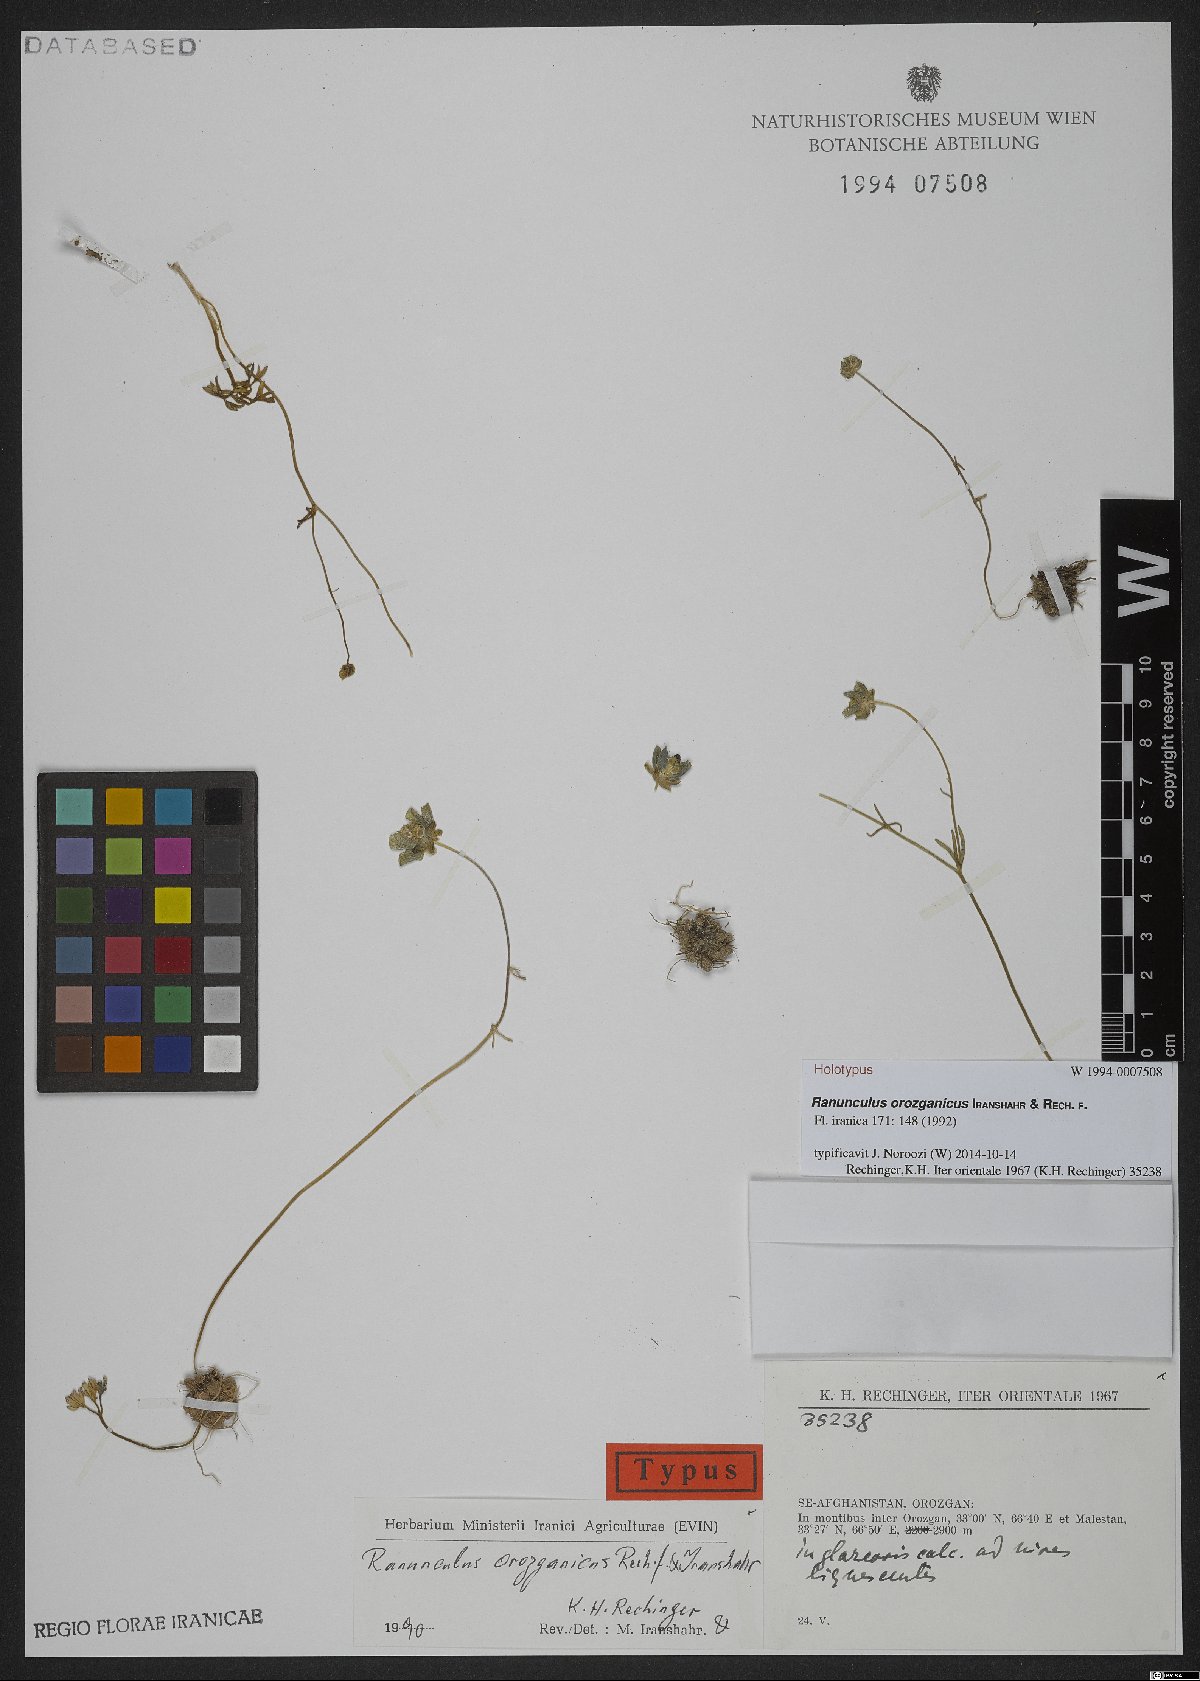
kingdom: Plantae
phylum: Tracheophyta
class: Magnoliopsida
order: Ranunculales
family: Ranunculaceae
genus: Ranunculus
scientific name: Ranunculus orozganicus
